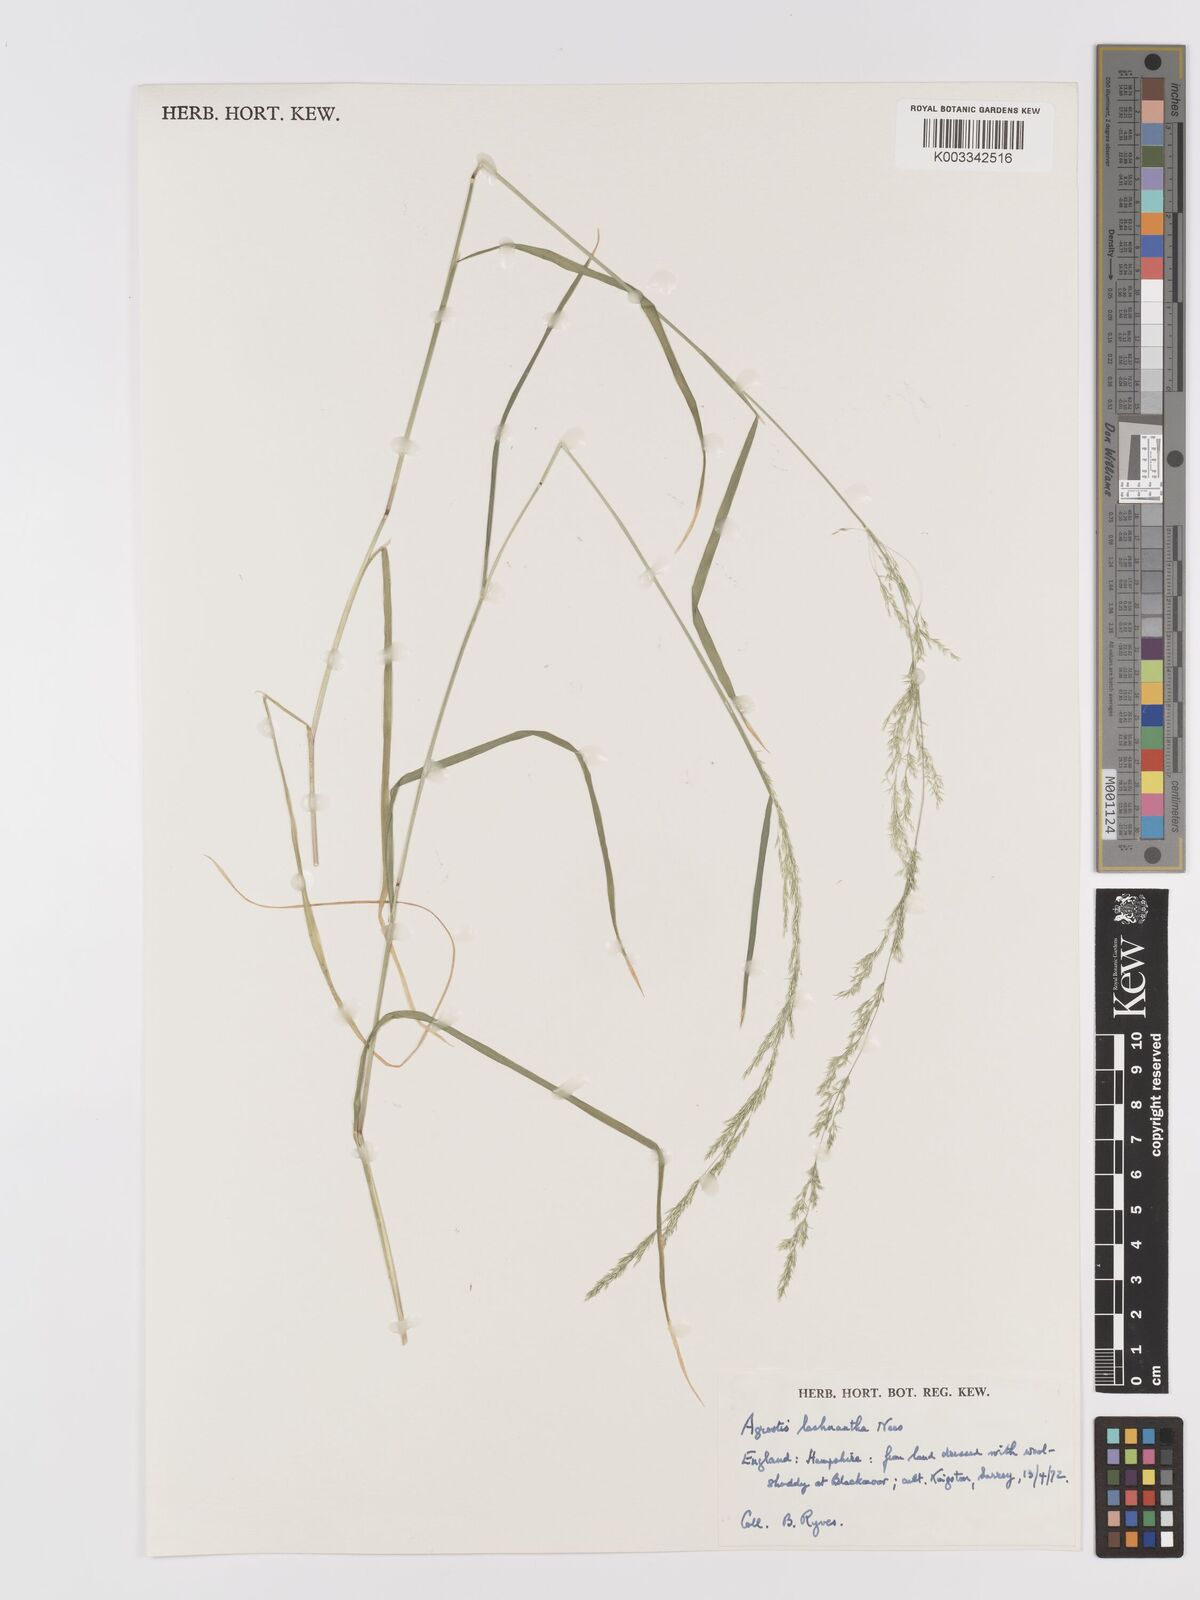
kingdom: Plantae
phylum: Tracheophyta
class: Liliopsida
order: Poales
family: Poaceae
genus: Lachnagrostis
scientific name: Lachnagrostis lachnantha
